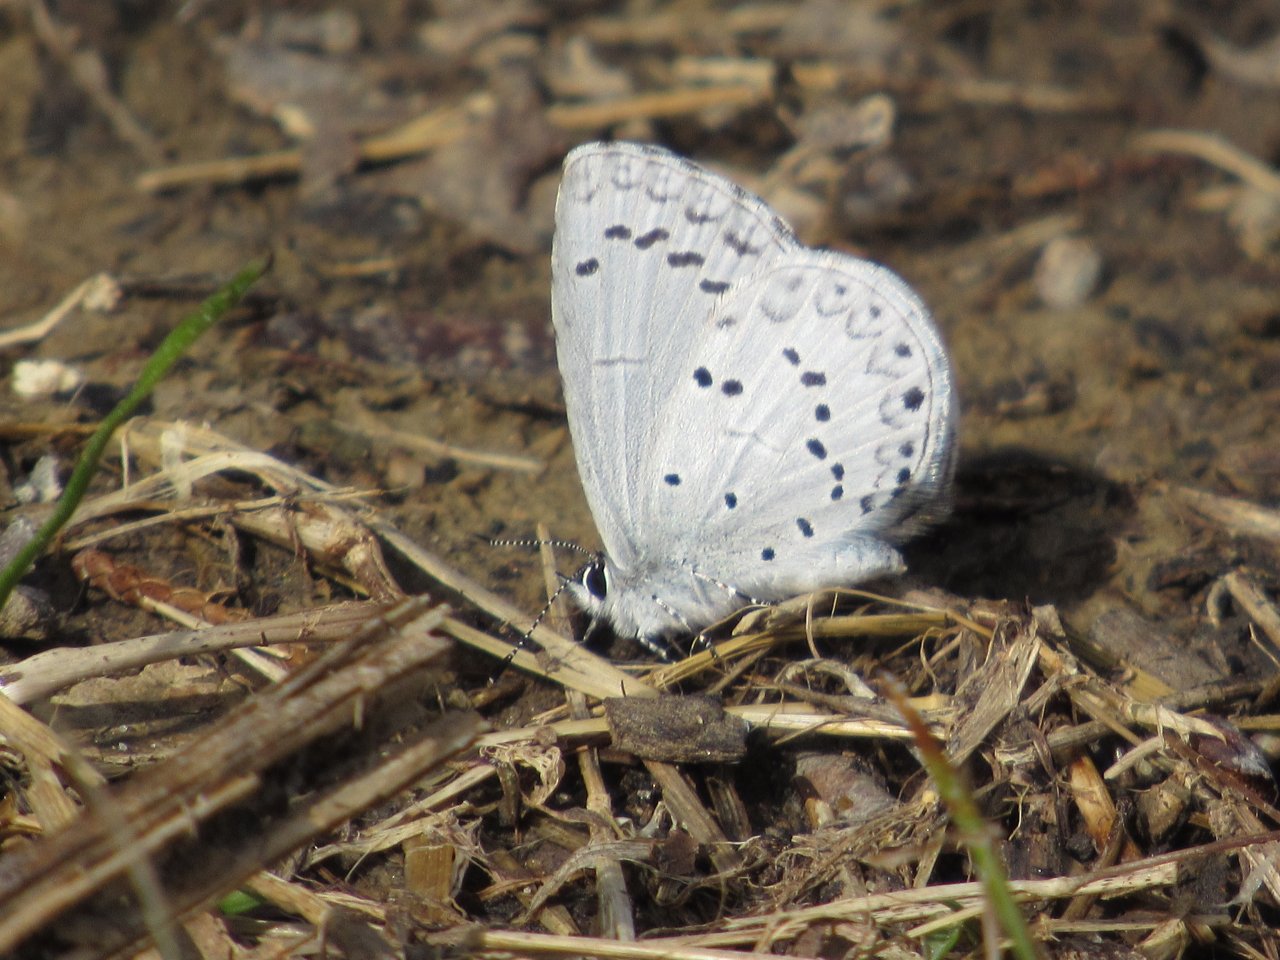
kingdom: Animalia
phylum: Arthropoda
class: Insecta
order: Lepidoptera
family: Lycaenidae
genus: Cyaniris
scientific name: Cyaniris neglecta
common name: Summer Azure
